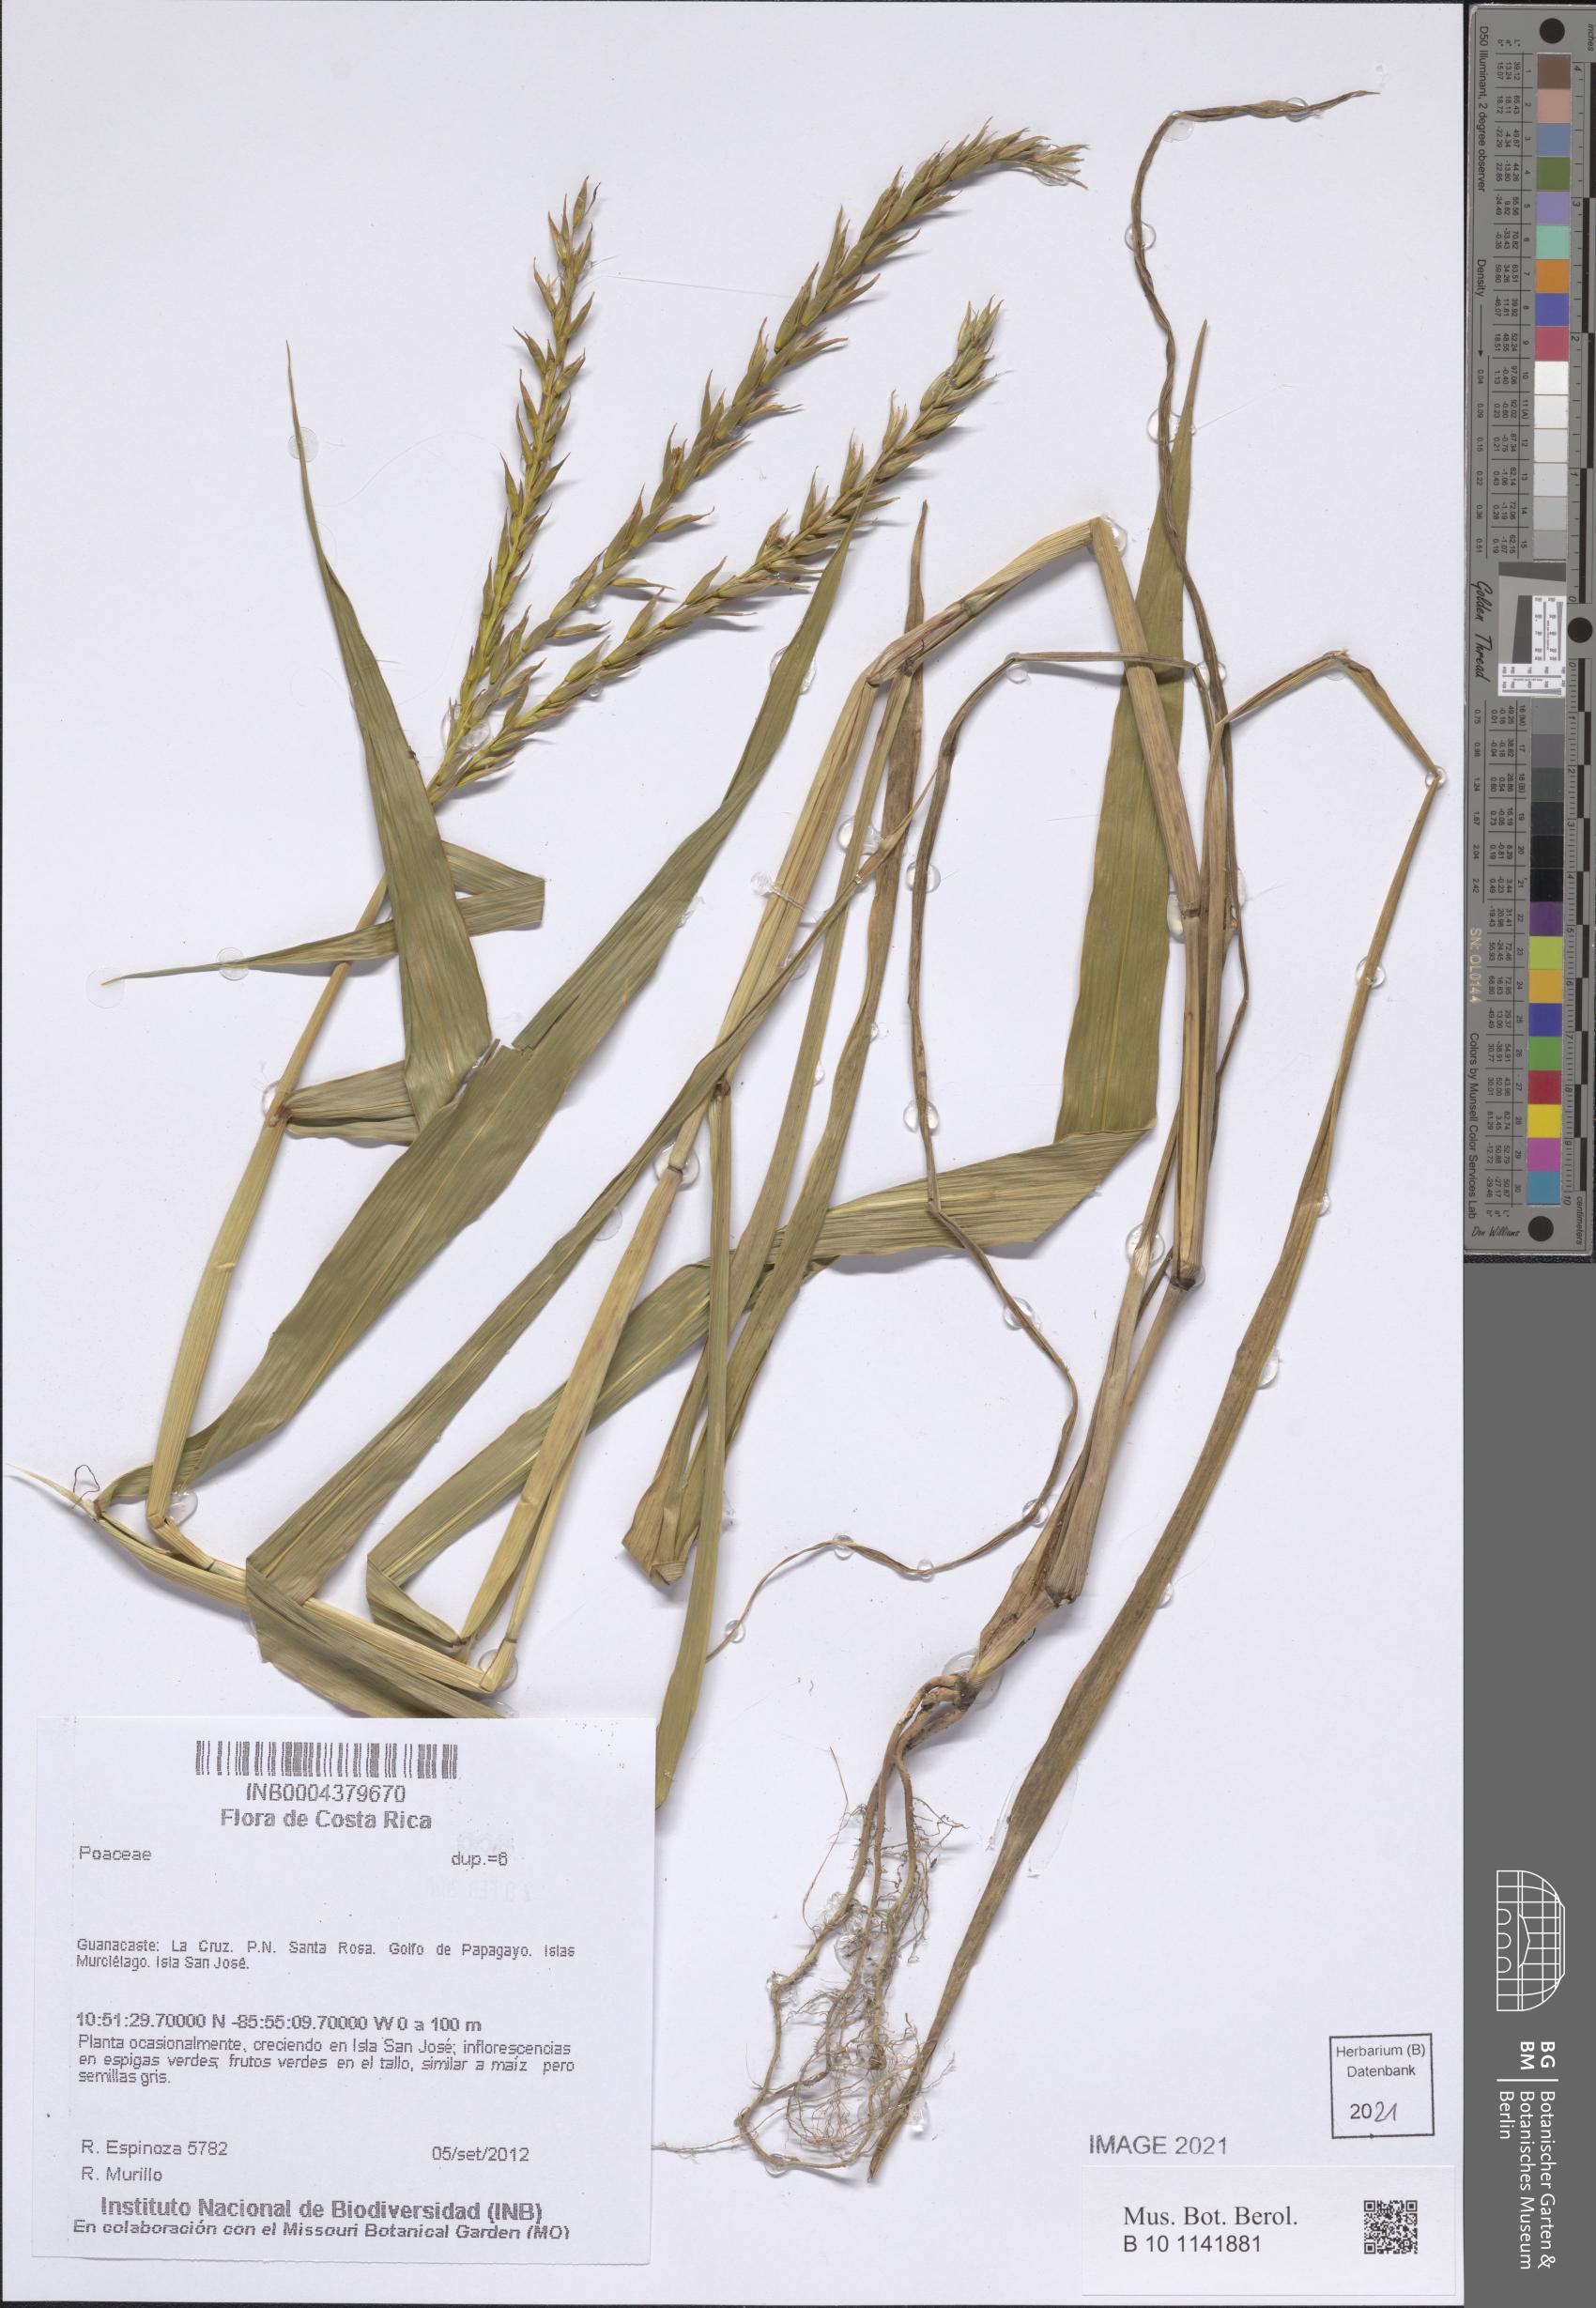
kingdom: Plantae
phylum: Tracheophyta
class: Liliopsida
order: Poales
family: Poaceae
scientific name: Poaceae
